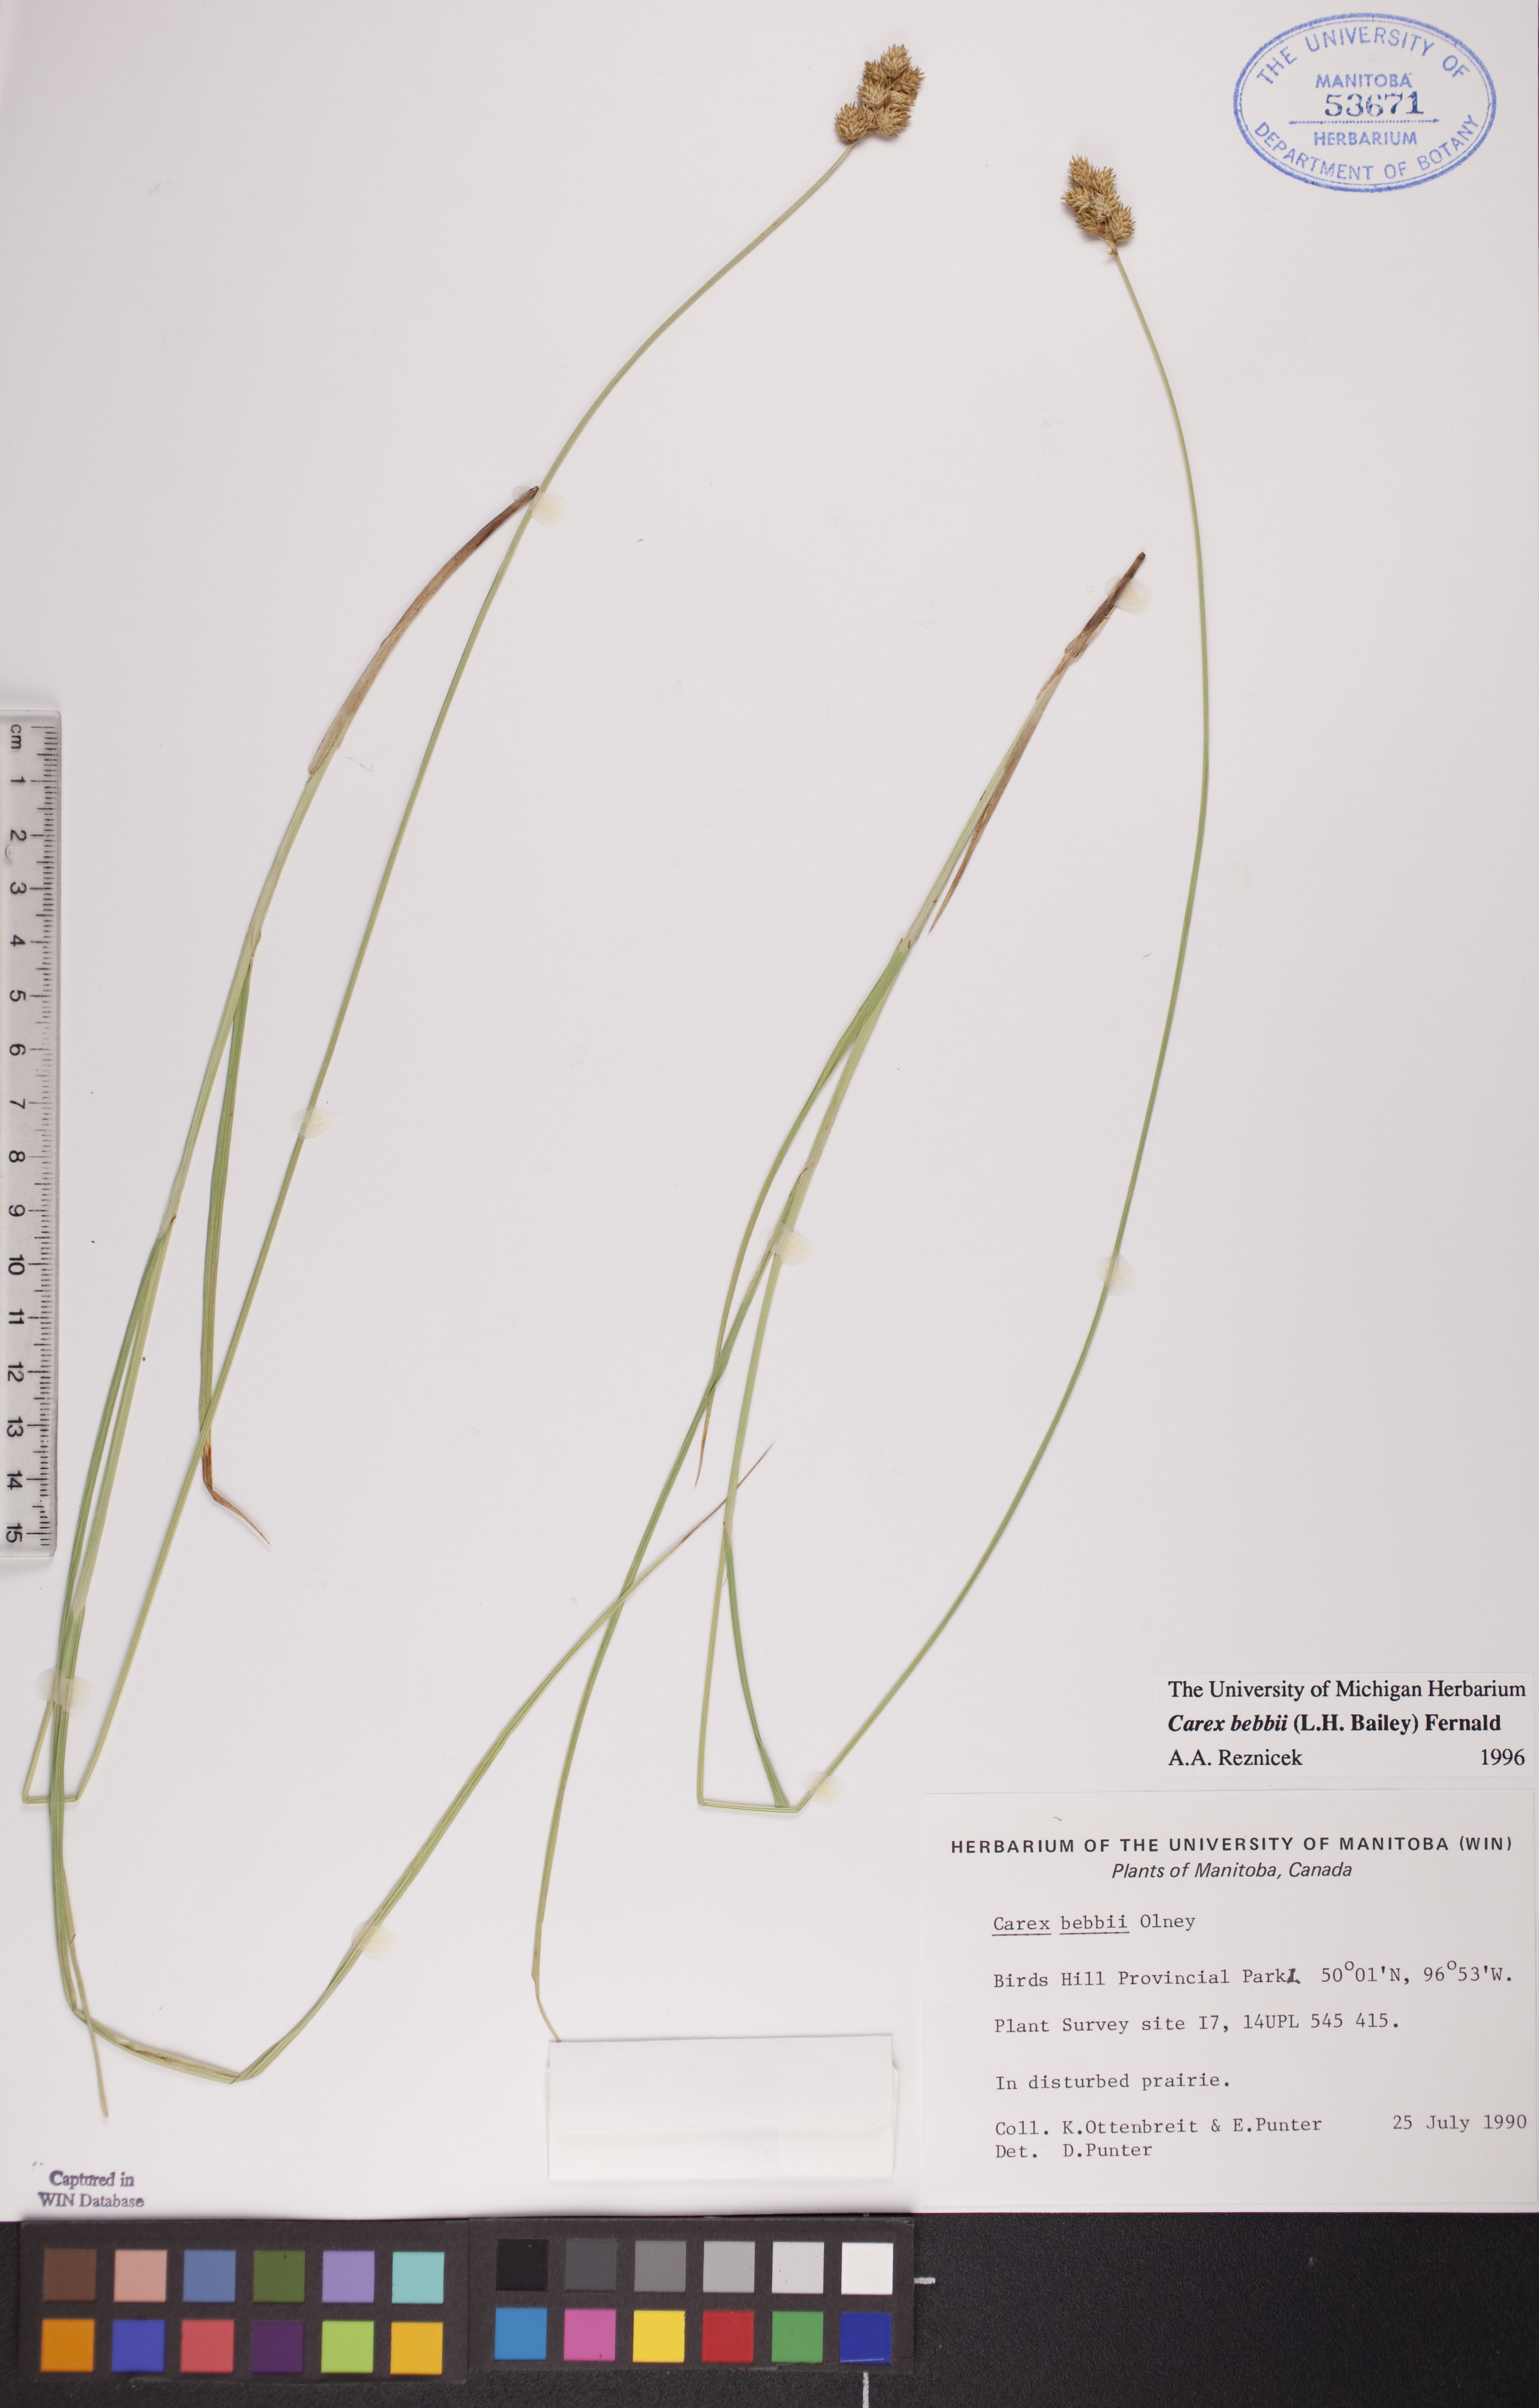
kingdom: Plantae
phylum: Tracheophyta
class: Liliopsida
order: Poales
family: Cyperaceae
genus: Carex
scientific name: Carex bebbii
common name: Bebb's sedge
